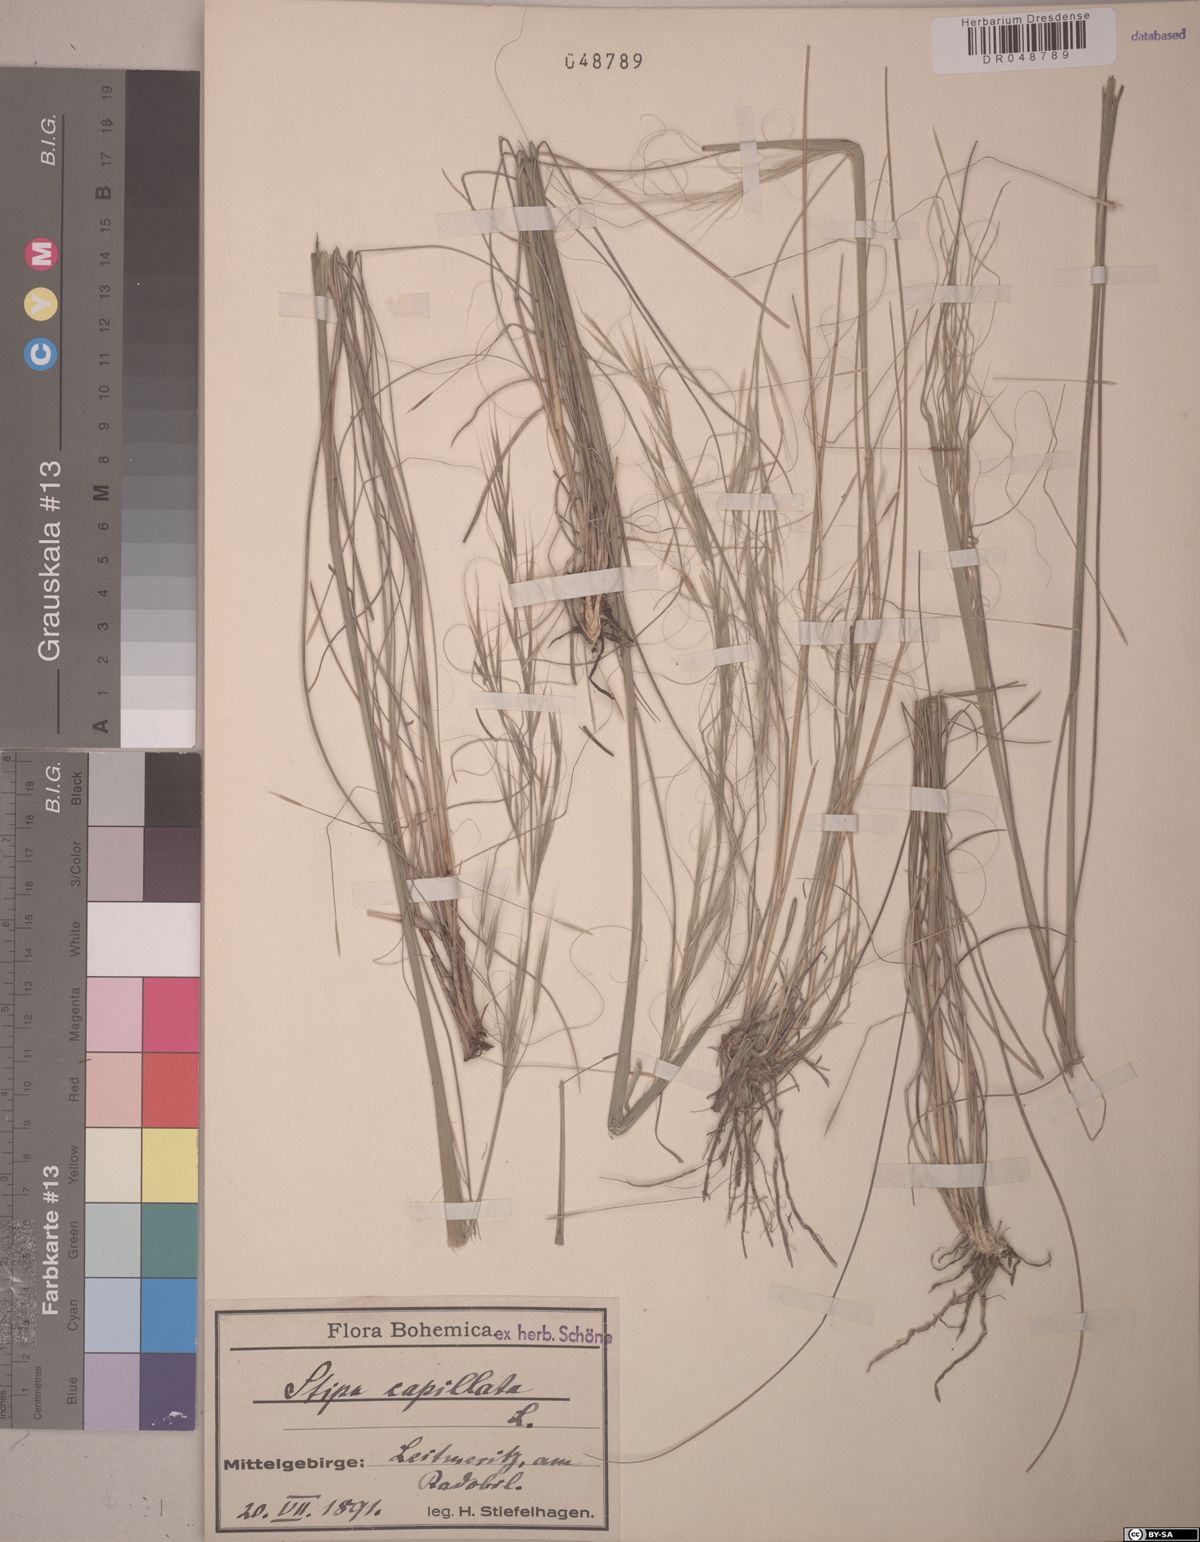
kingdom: Plantae
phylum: Tracheophyta
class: Liliopsida
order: Poales
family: Poaceae
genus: Stipa
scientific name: Stipa capillata
